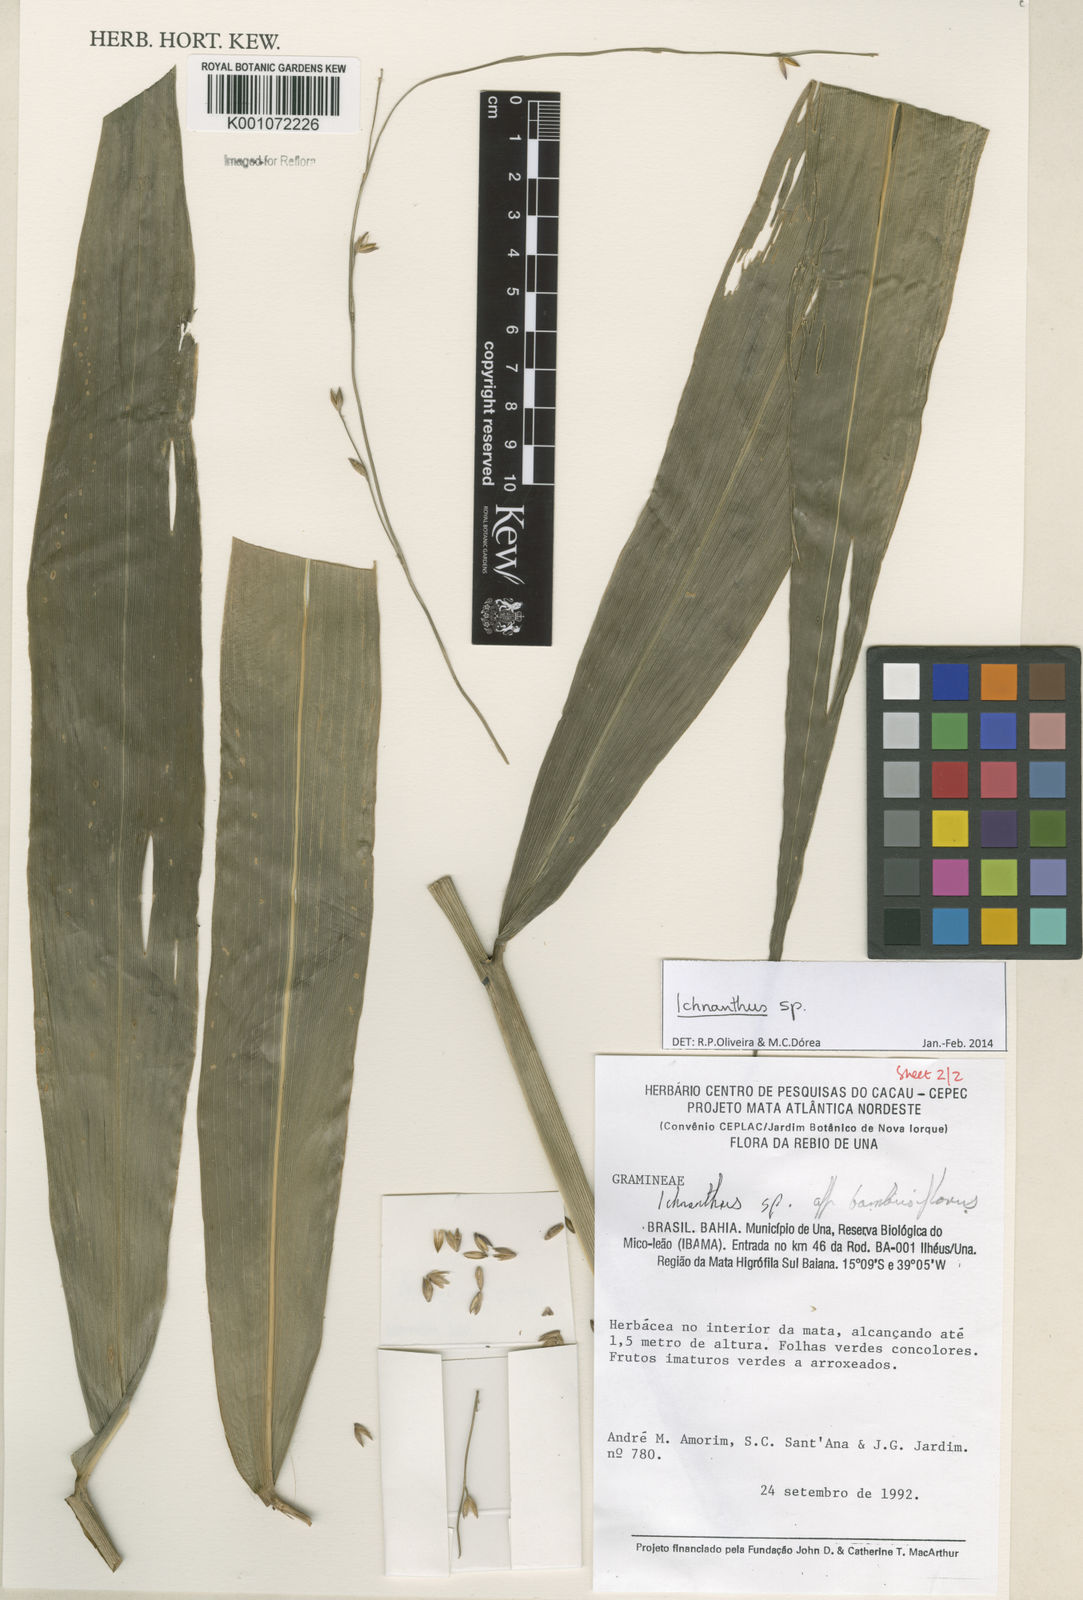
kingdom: Plantae
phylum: Tracheophyta
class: Liliopsida
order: Poales
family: Poaceae
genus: Ichnanthus
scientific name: Ichnanthus
